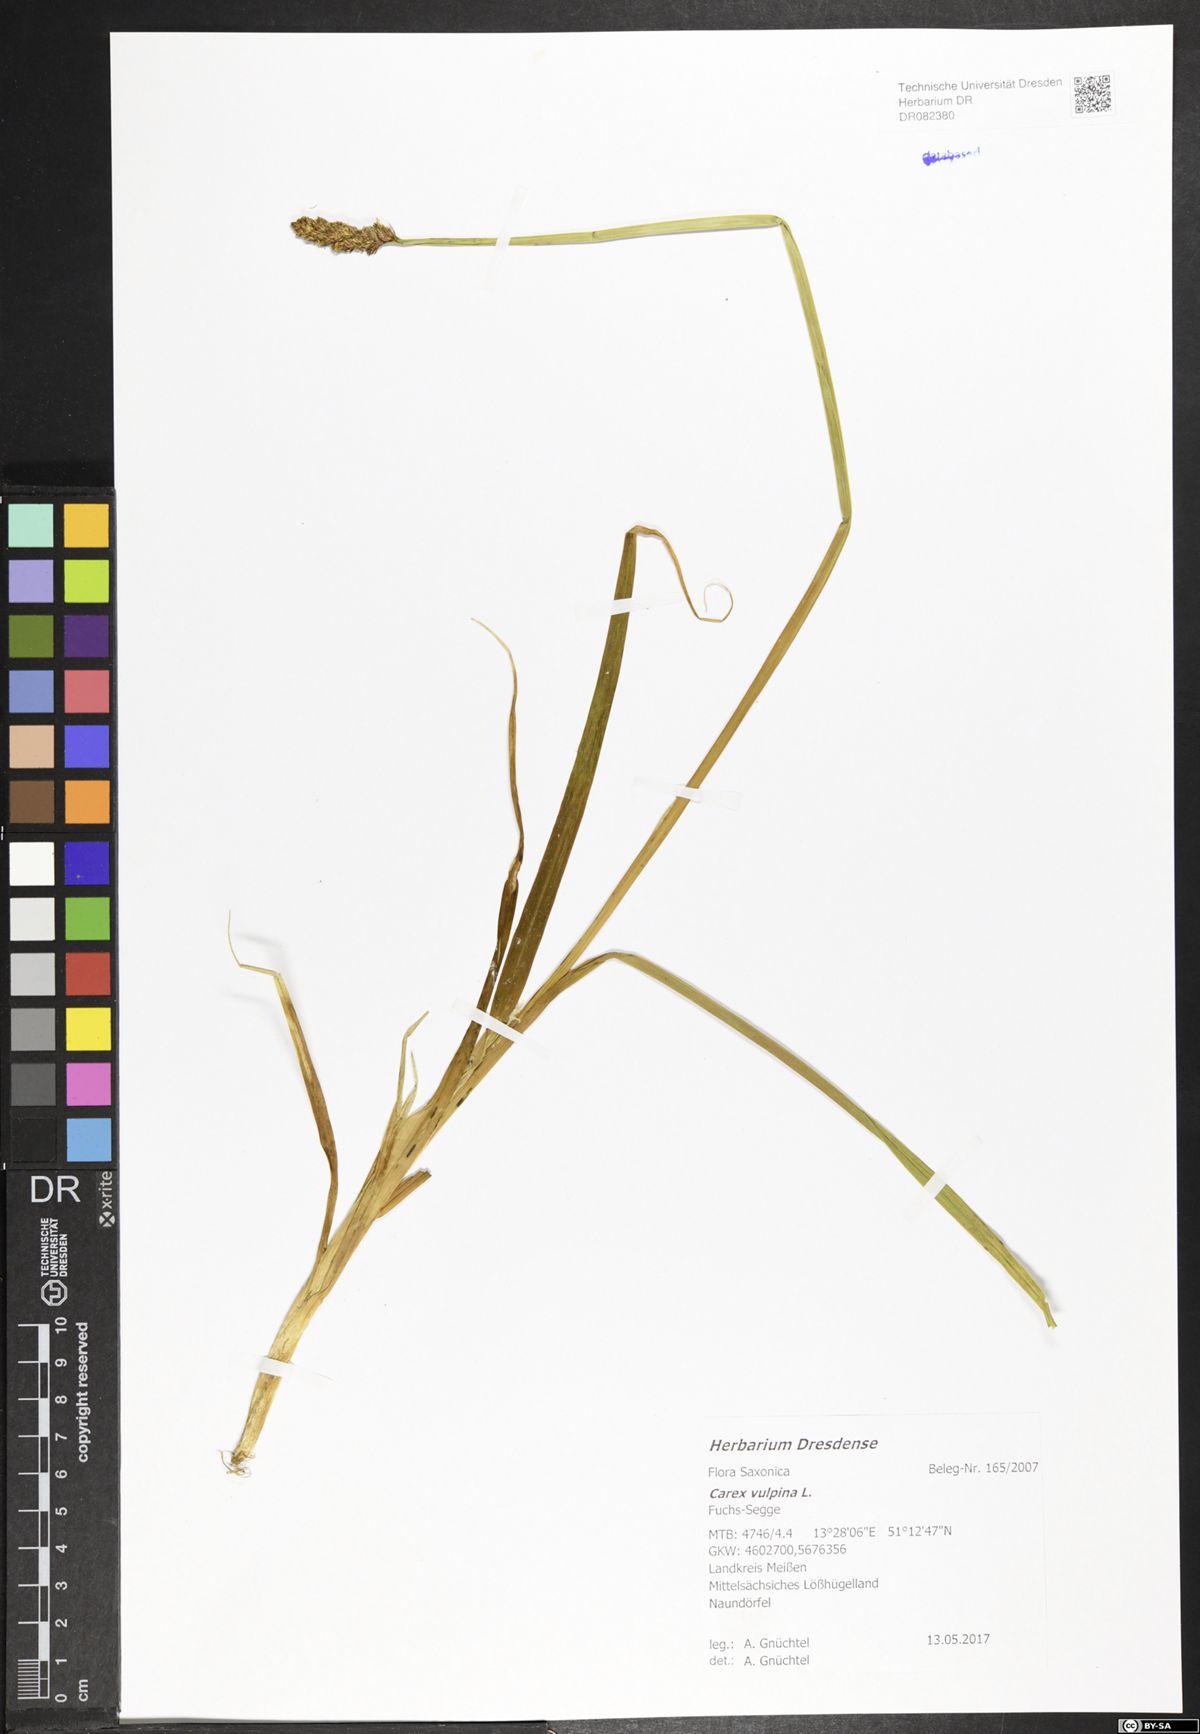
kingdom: Plantae
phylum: Tracheophyta
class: Liliopsida
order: Poales
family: Cyperaceae
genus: Carex
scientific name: Carex vulpina
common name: True fox-sedge
